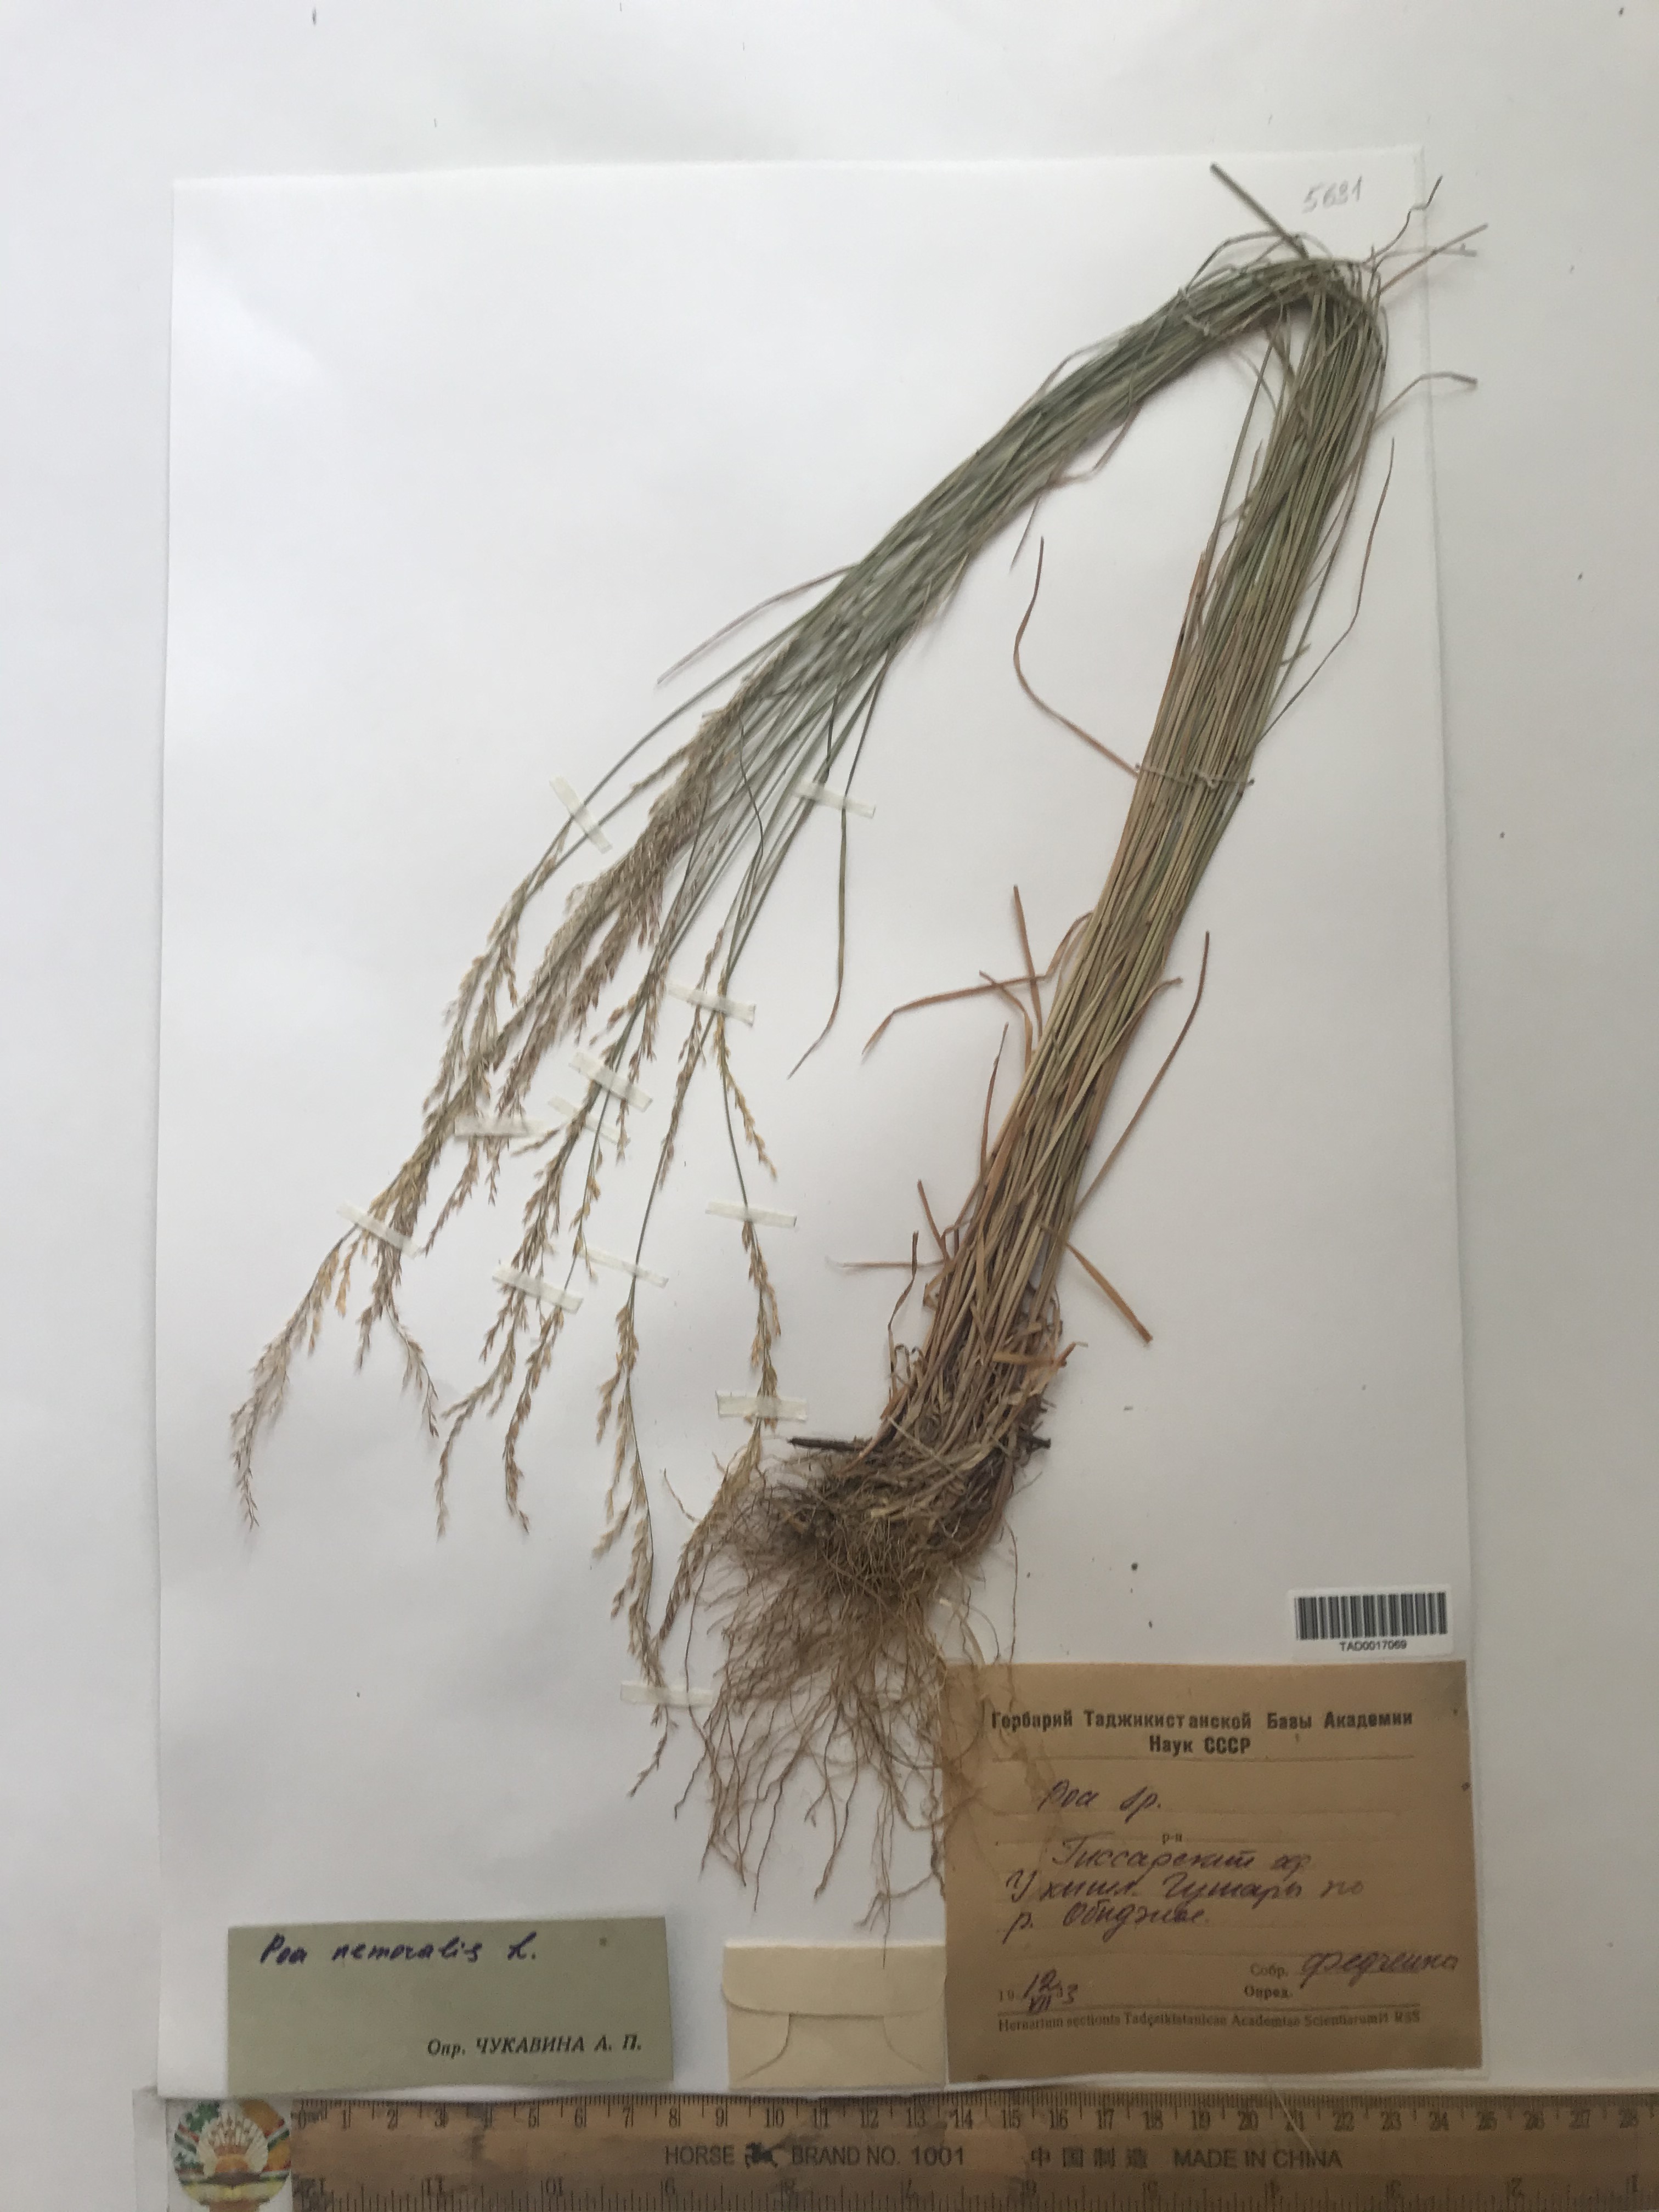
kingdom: Plantae
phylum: Tracheophyta
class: Liliopsida
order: Poales
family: Poaceae
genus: Poa
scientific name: Poa nemoralis
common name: Wood bluegrass
